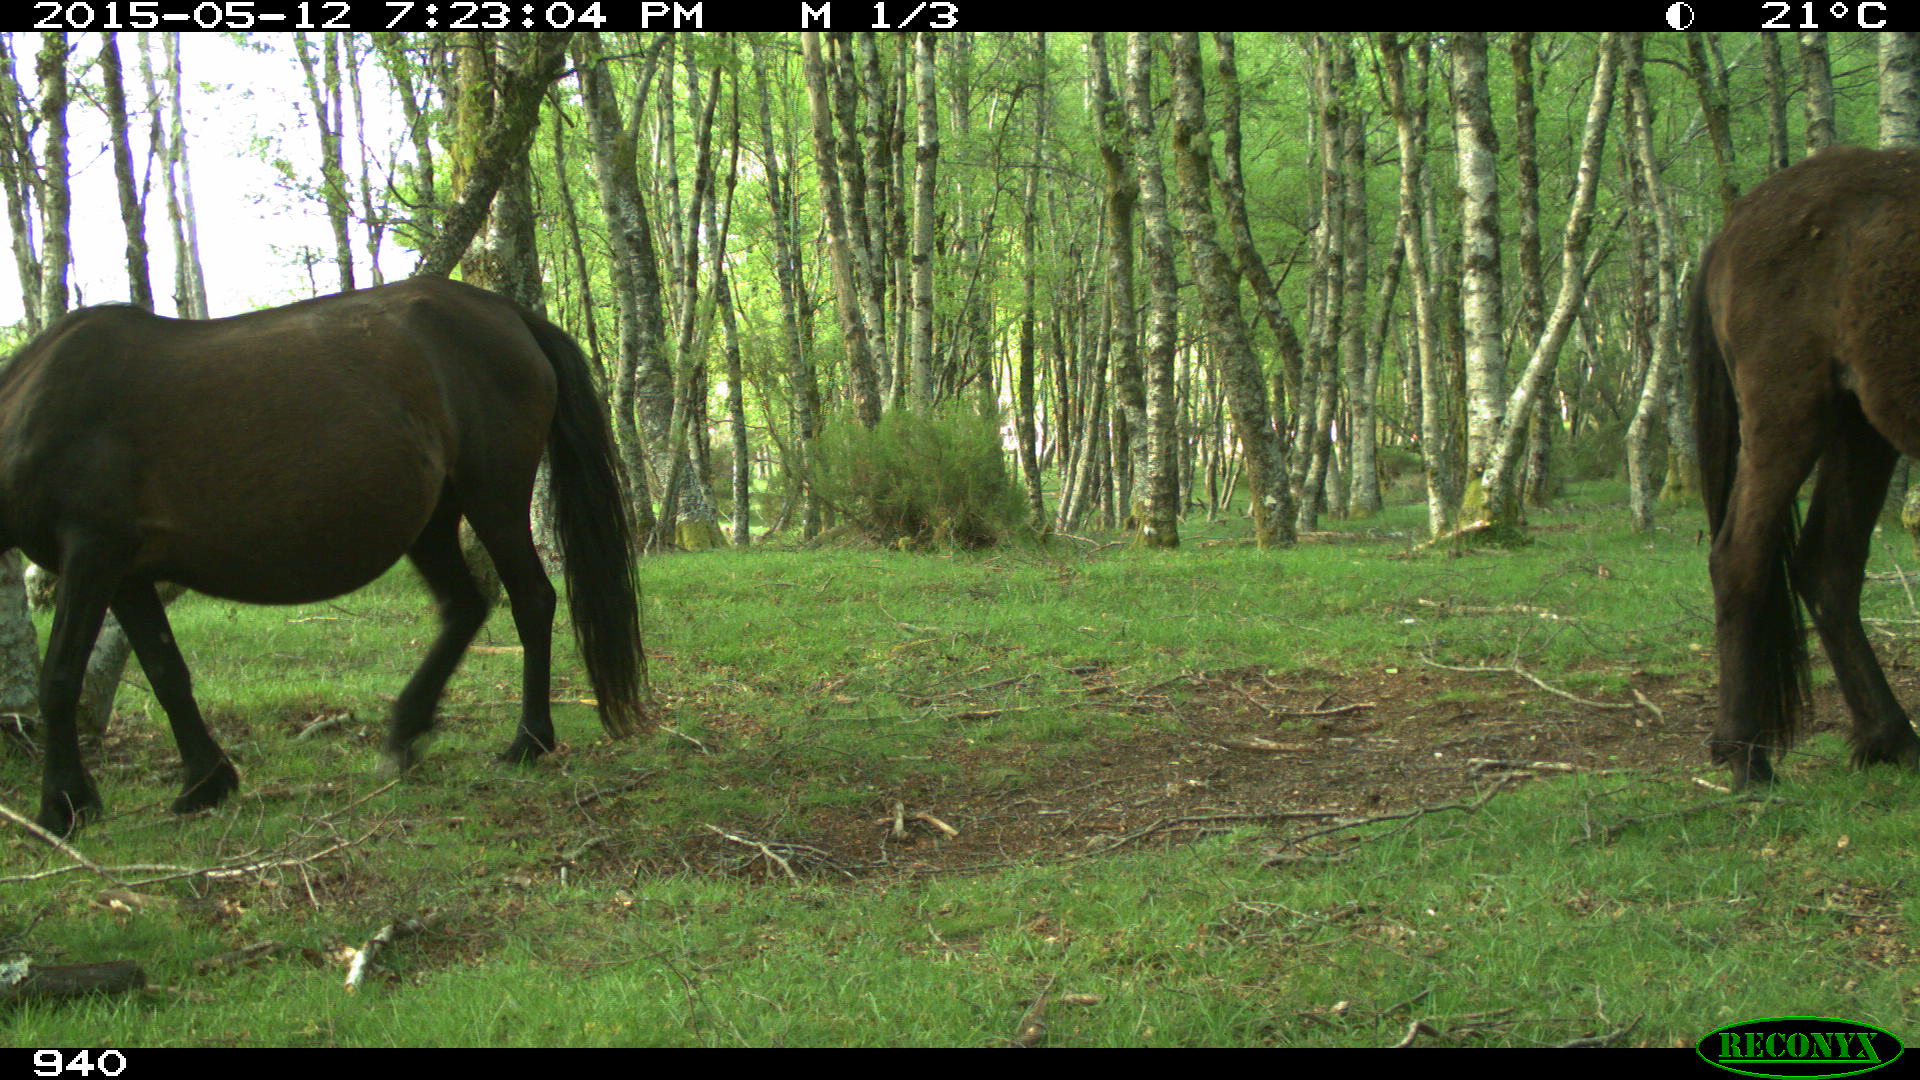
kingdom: Animalia
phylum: Chordata
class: Mammalia
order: Perissodactyla
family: Equidae
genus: Equus
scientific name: Equus caballus
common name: Horse
